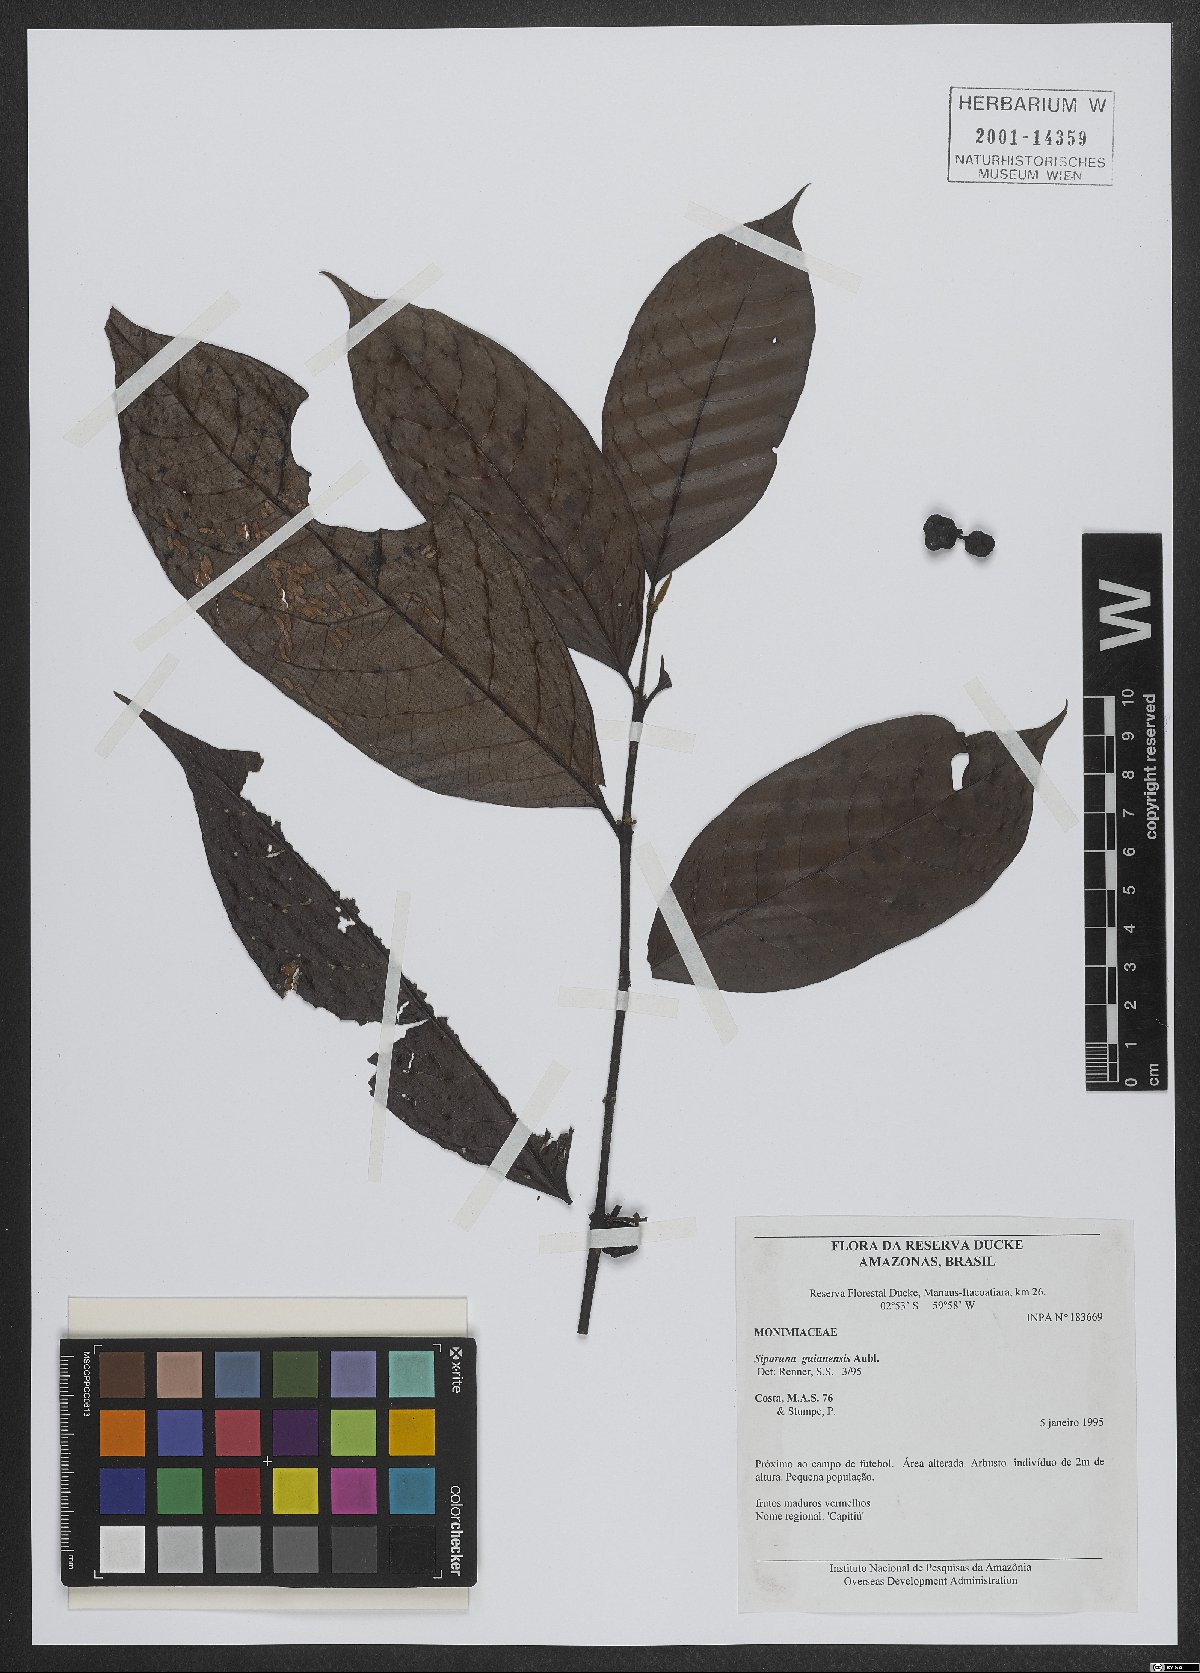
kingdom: Plantae
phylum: Tracheophyta
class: Magnoliopsida
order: Laurales
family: Siparunaceae
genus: Siparuna
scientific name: Siparuna guianensis
